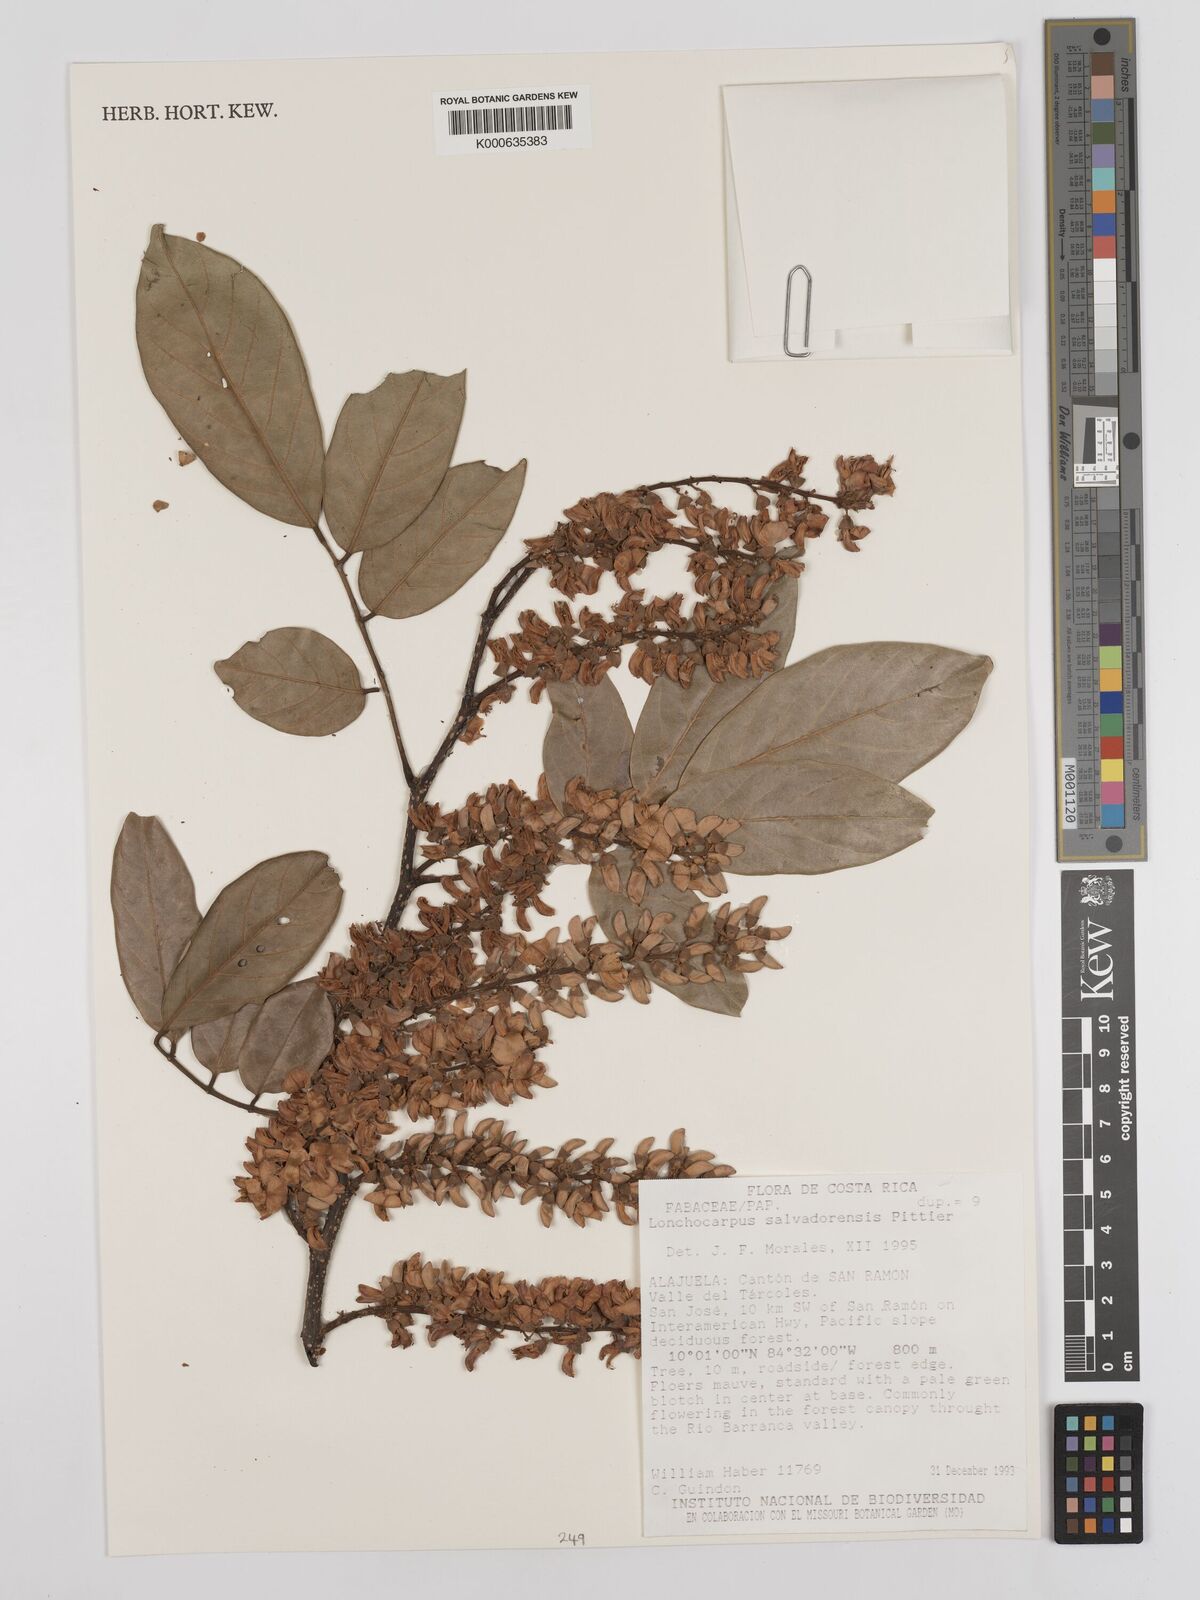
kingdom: Plantae
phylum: Tracheophyta
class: Magnoliopsida
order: Fabales
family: Fabaceae
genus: Lonchocarpus
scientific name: Lonchocarpus salvadorensis
